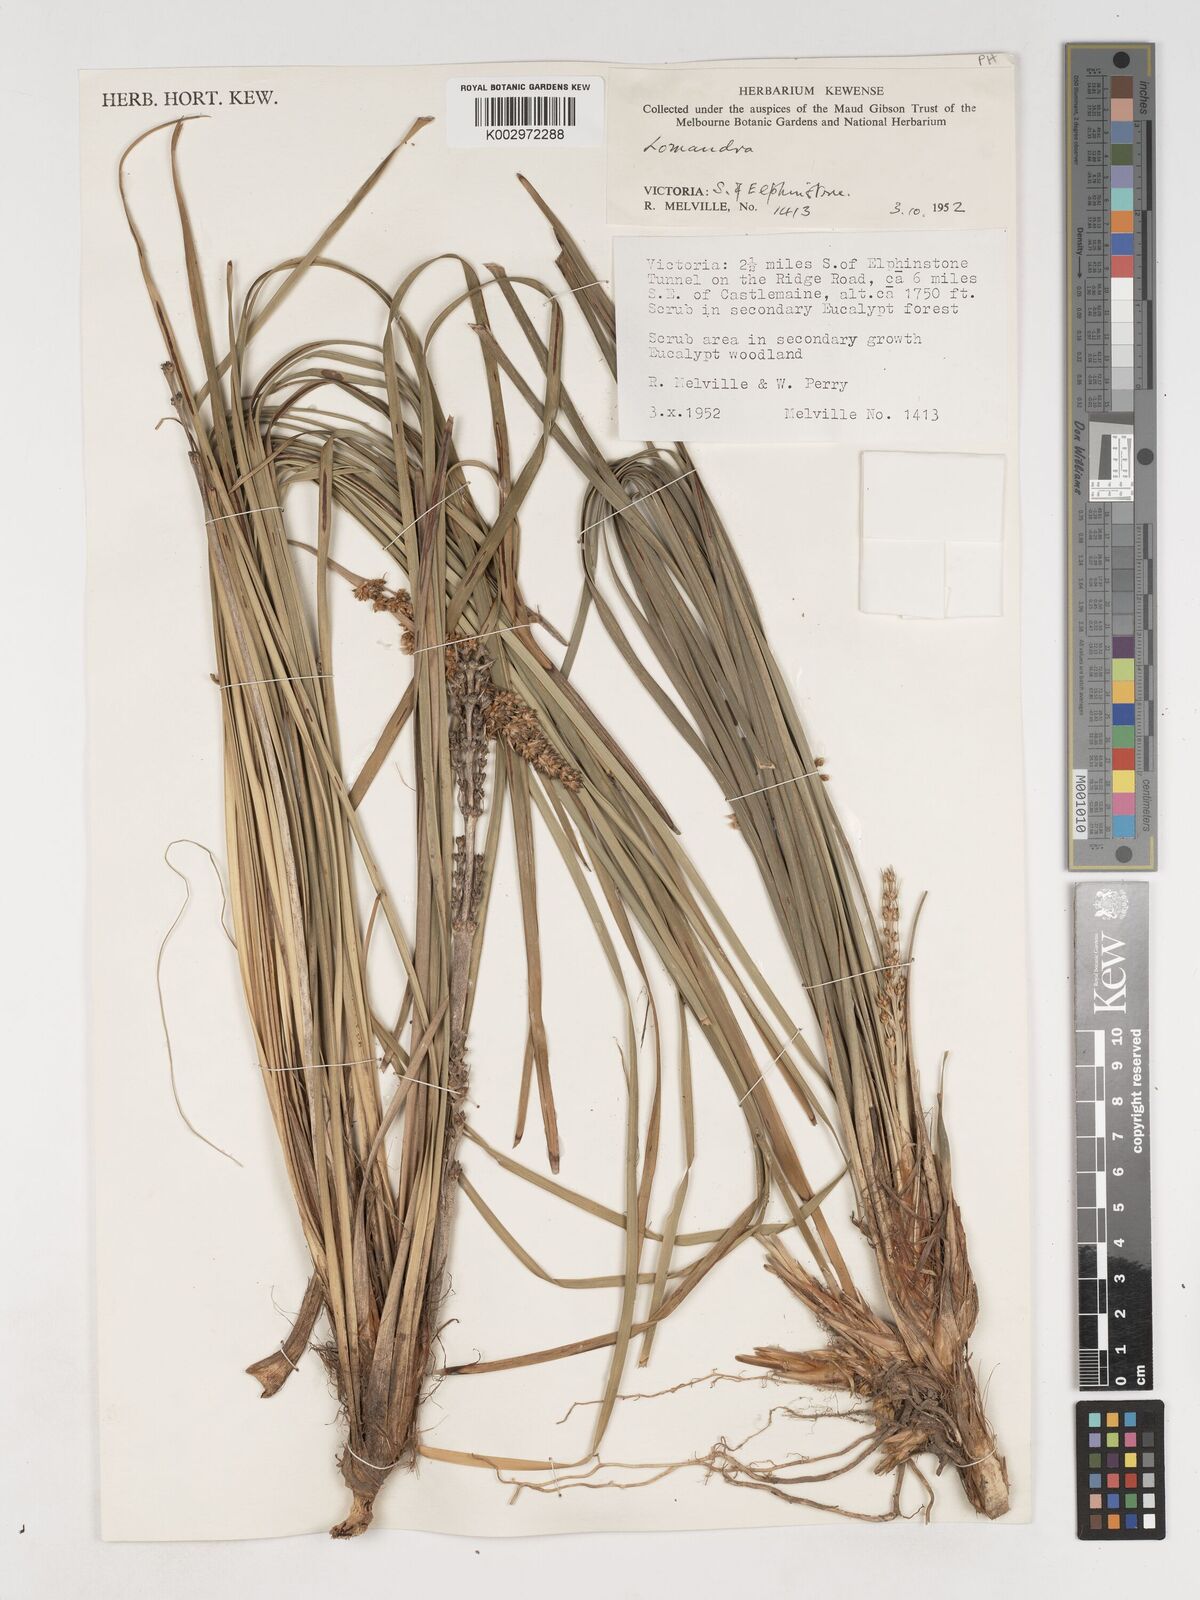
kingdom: Plantae
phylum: Tracheophyta
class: Liliopsida
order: Asparagales
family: Asparagaceae
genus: Lomandra
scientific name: Lomandra
